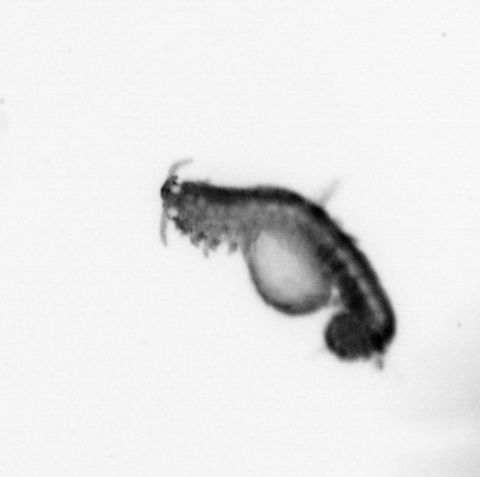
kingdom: Animalia
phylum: Annelida
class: Polychaeta
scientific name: Polychaeta
